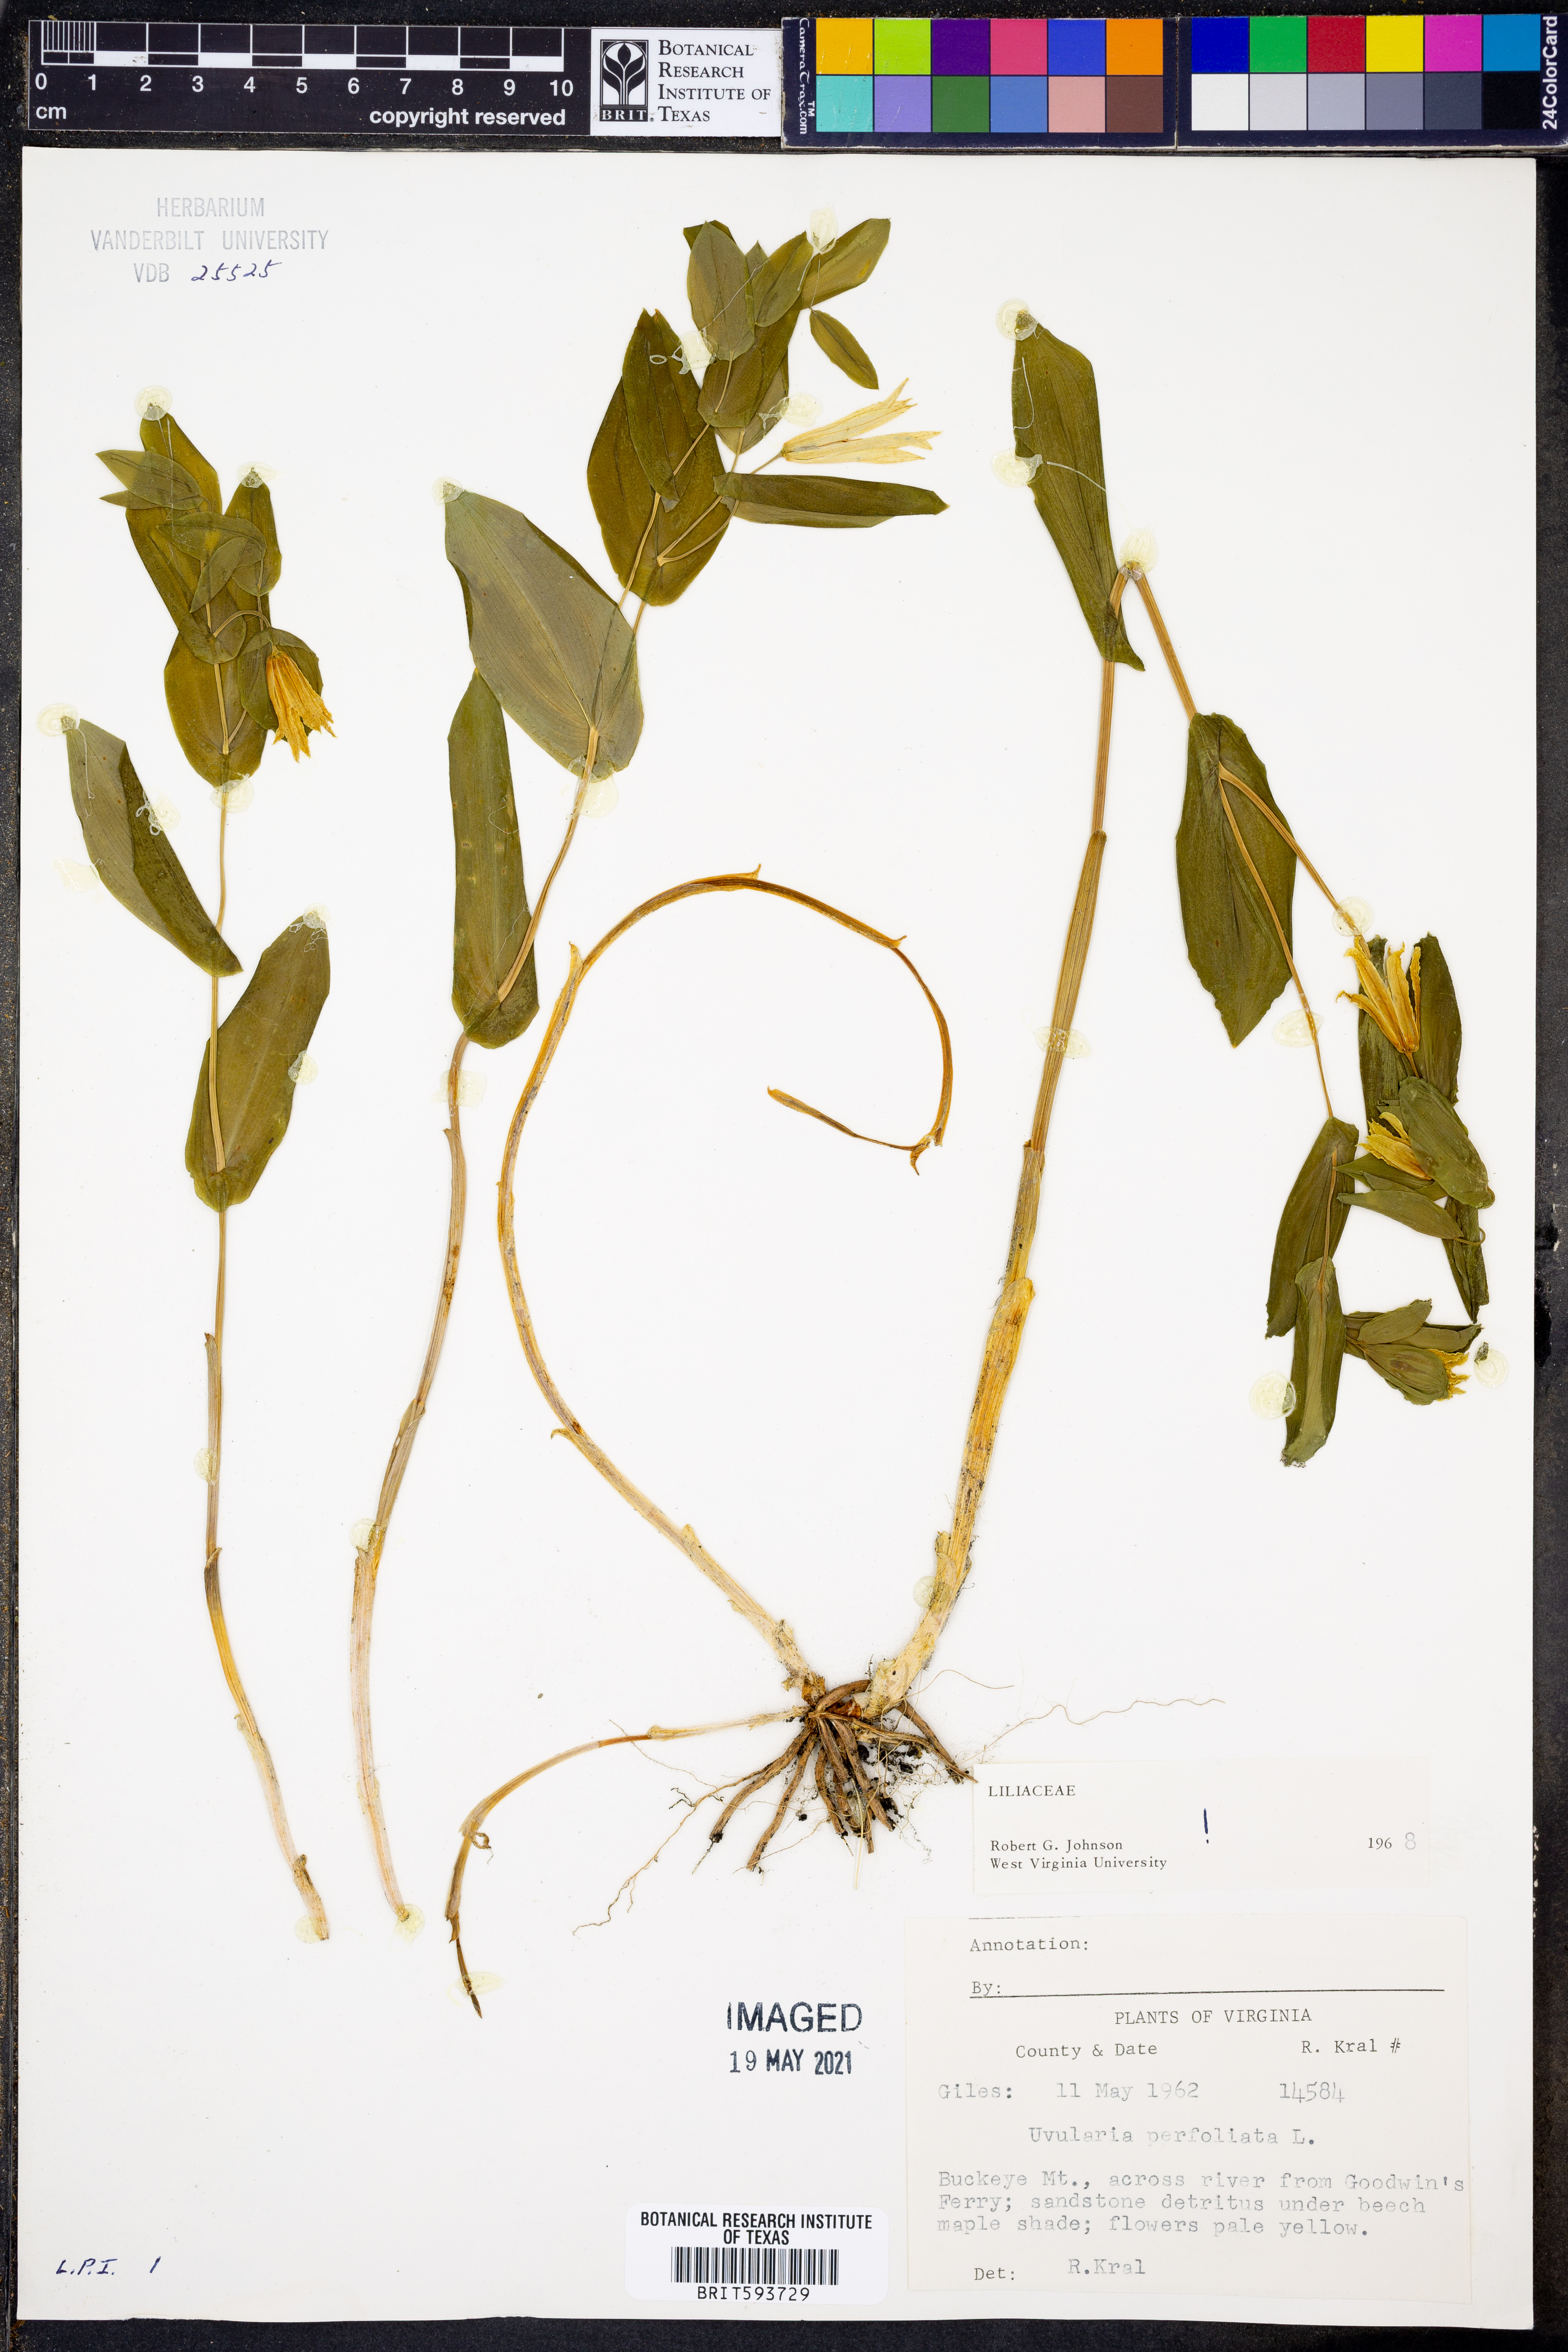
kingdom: Plantae
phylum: Tracheophyta
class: Liliopsida
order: Liliales
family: Colchicaceae
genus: Uvularia
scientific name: Uvularia perfoliata
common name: Perfoliate bellwort
